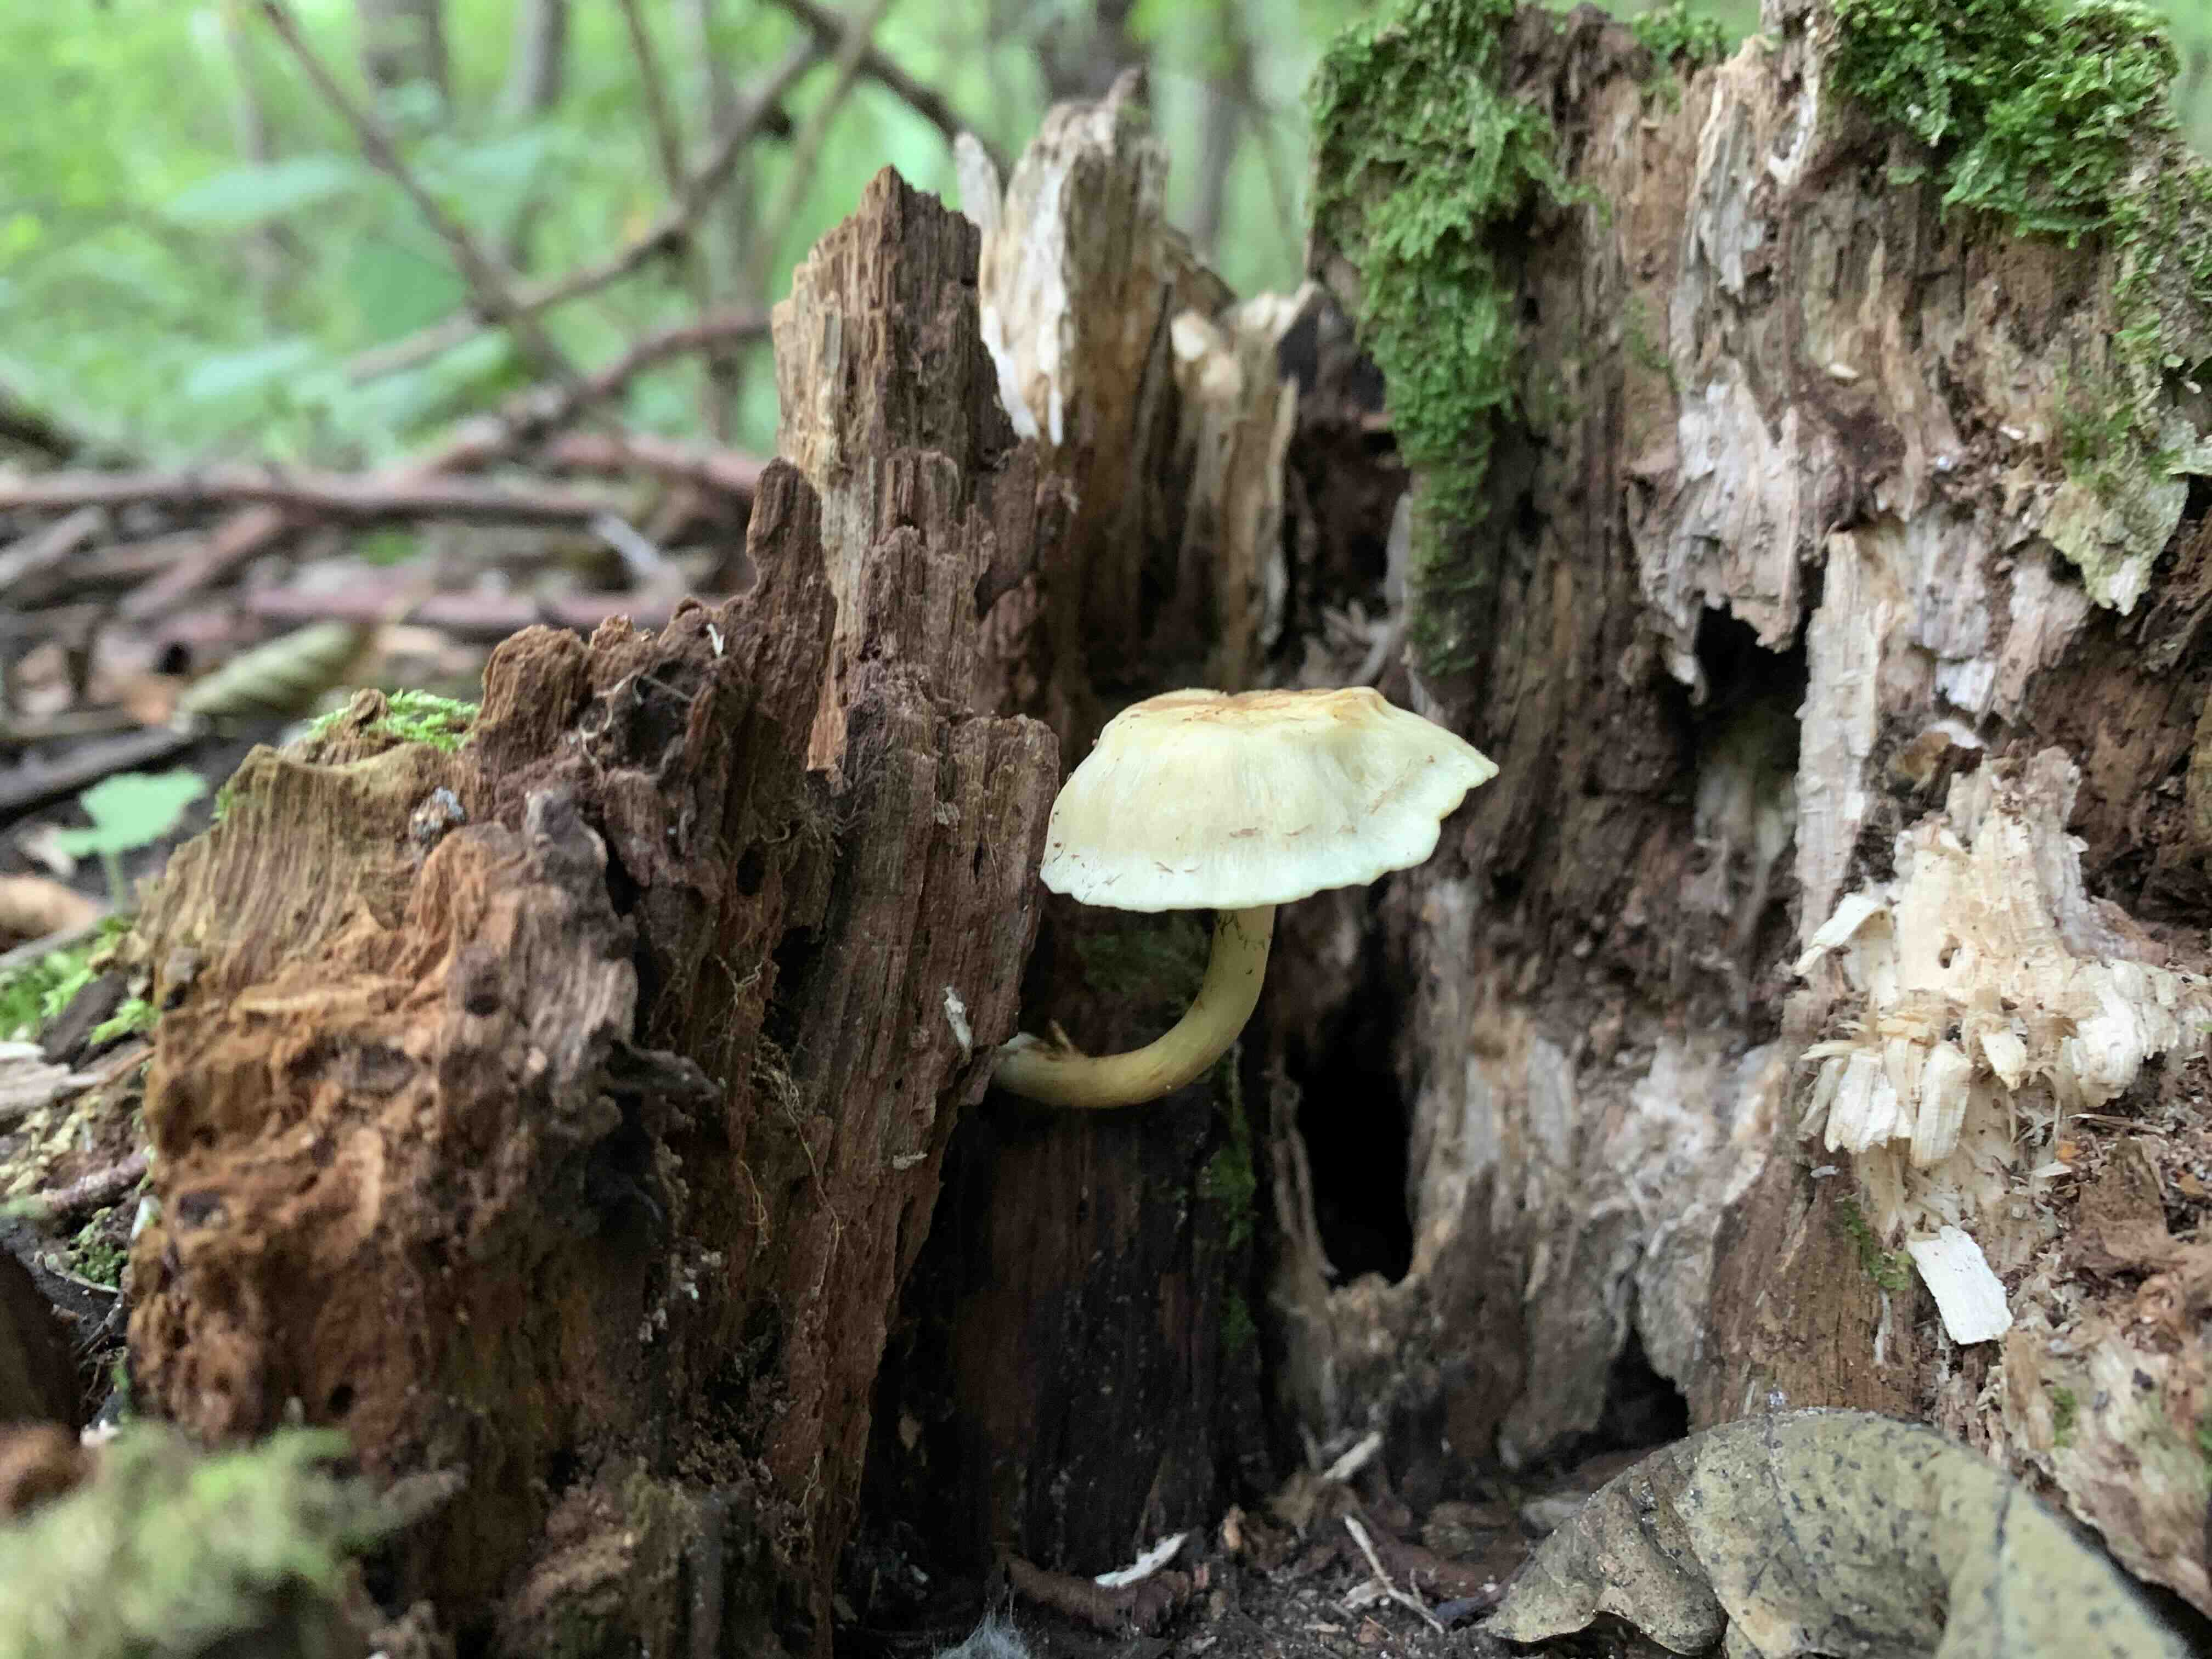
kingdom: Fungi
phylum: Basidiomycota
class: Agaricomycetes
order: Agaricales
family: Strophariaceae
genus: Hypholoma
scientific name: Hypholoma fasciculare
